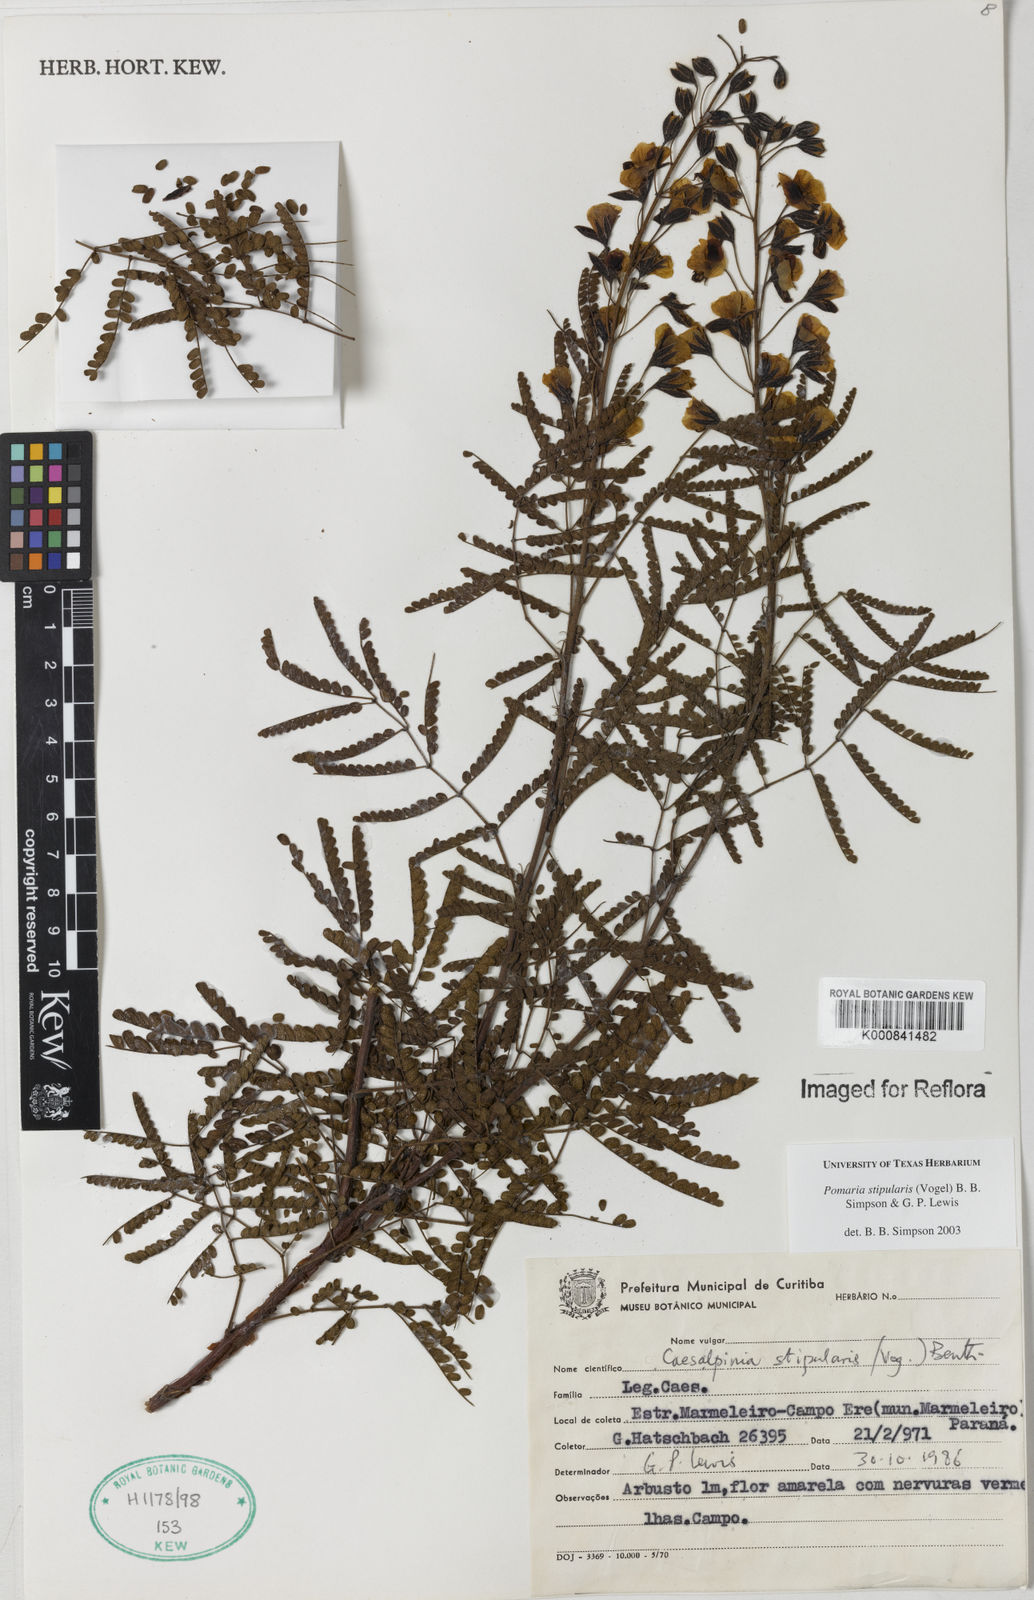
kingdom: Plantae
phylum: Tracheophyta
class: Magnoliopsida
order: Fabales
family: Fabaceae
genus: Pomaria
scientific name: Pomaria stipularis
